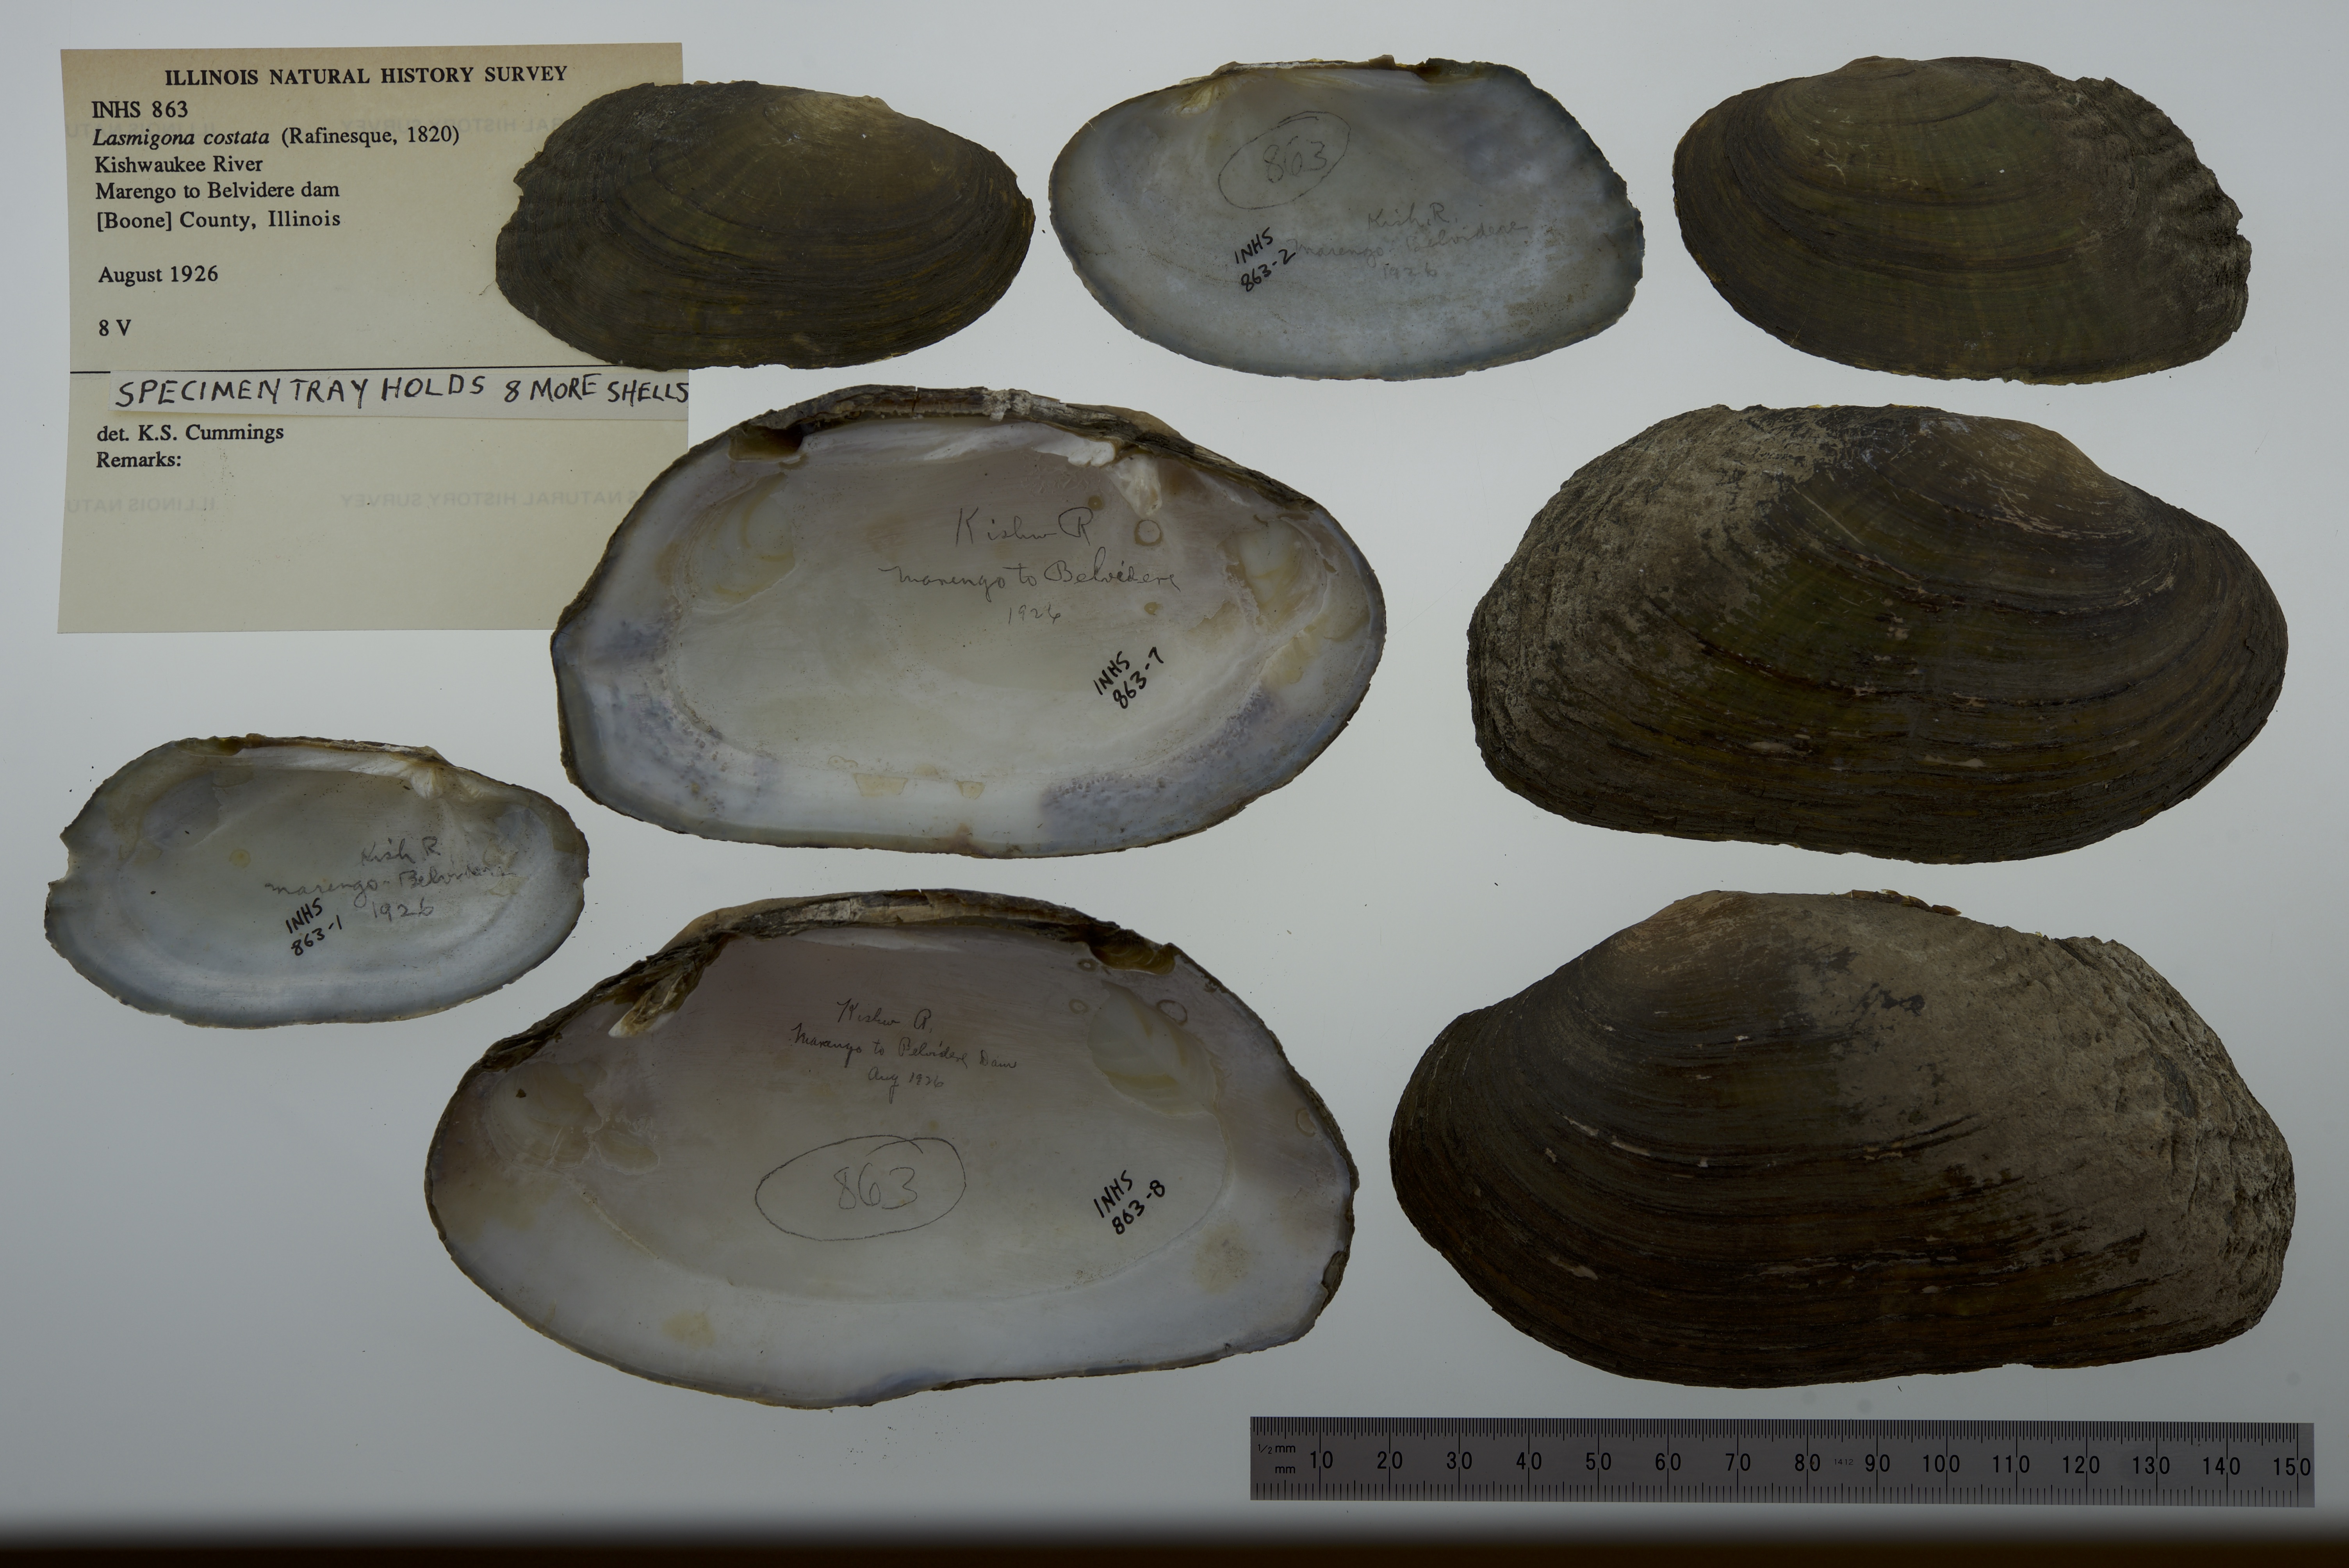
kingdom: Animalia
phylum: Mollusca
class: Bivalvia
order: Unionida
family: Unionidae
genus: Lasmigona
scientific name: Lasmigona costata
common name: Flutedshell
